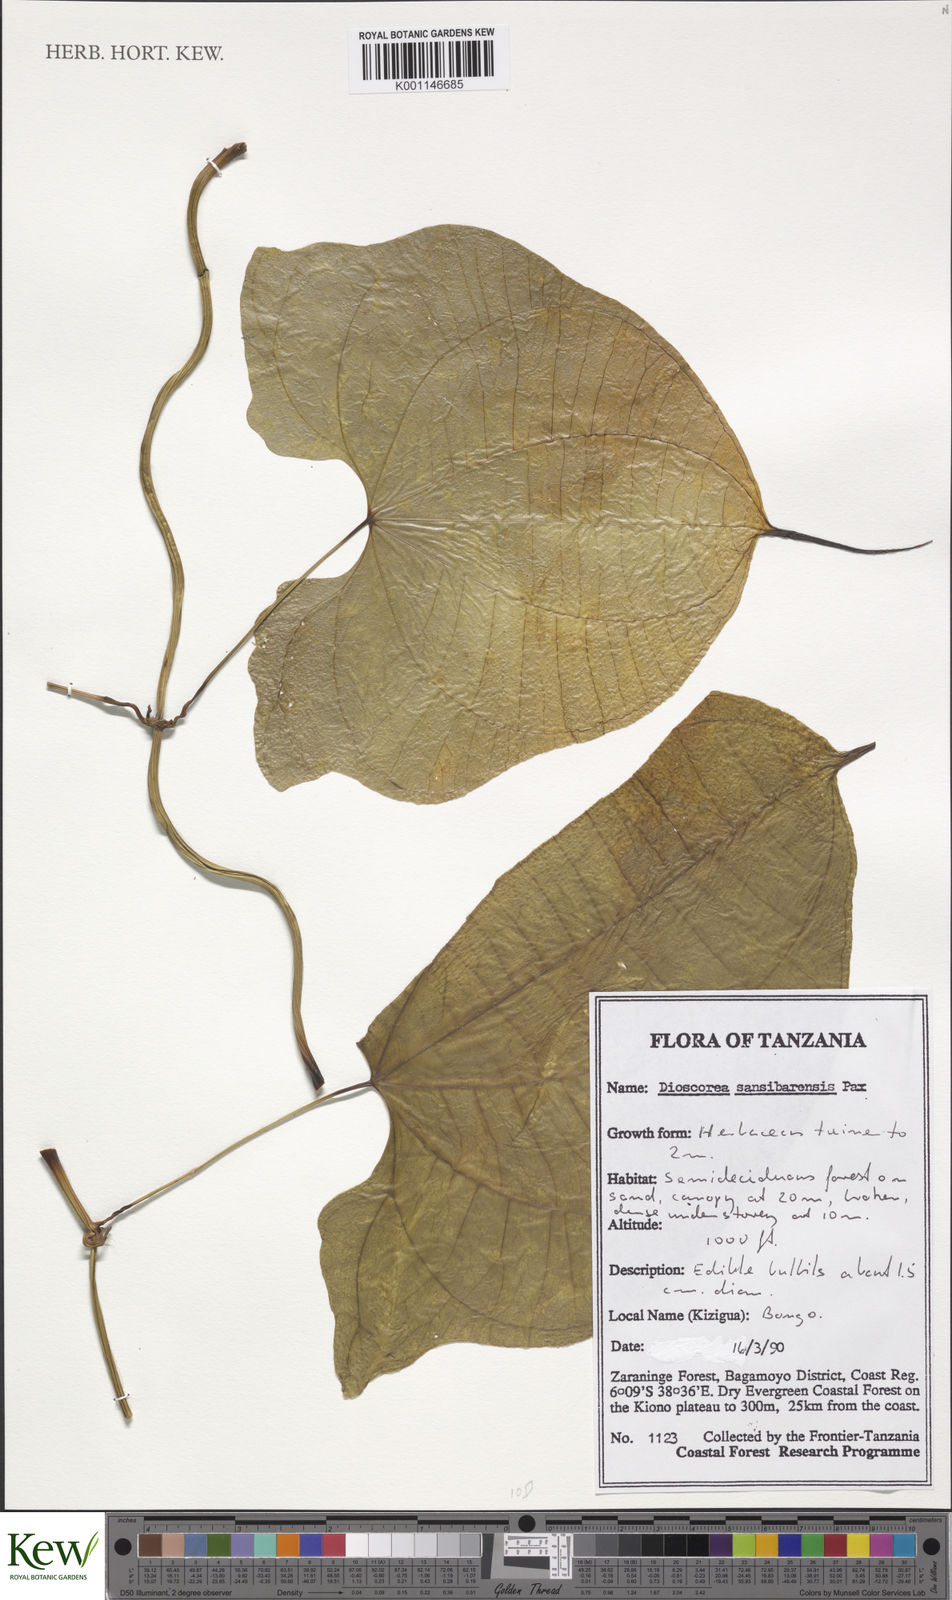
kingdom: Plantae
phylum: Tracheophyta
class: Liliopsida
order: Dioscoreales
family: Dioscoreaceae
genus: Dioscorea
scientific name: Dioscorea sansibarensis
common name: Zanzibar yam
